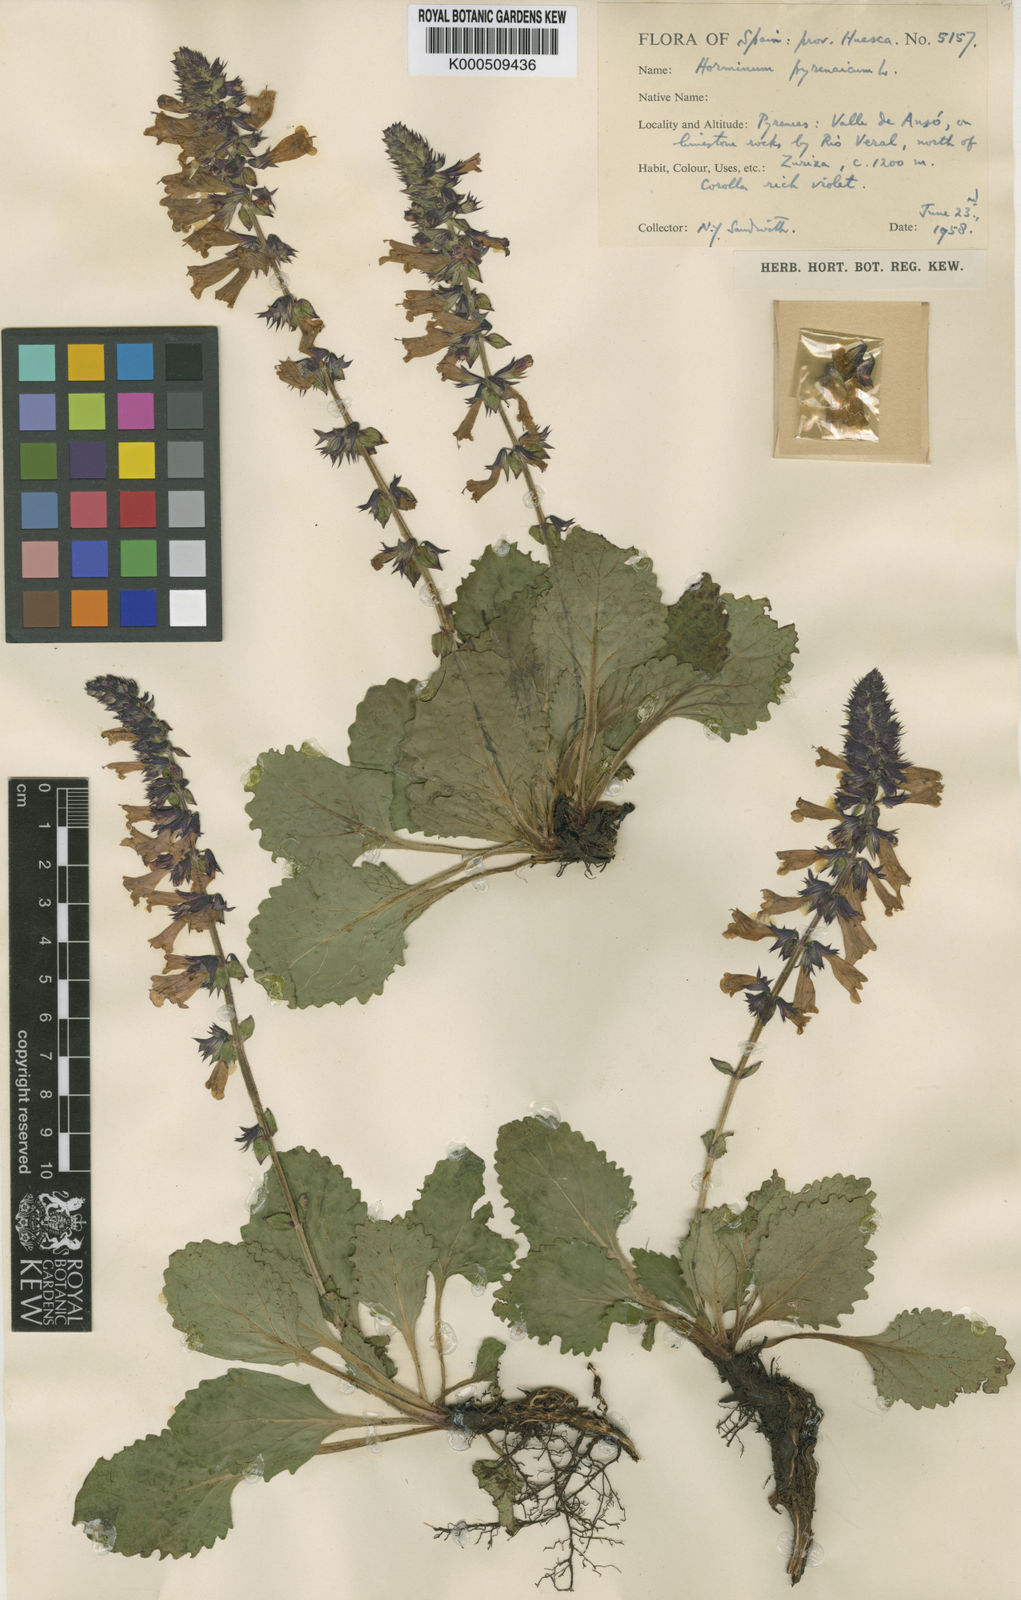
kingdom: Plantae
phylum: Tracheophyta
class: Magnoliopsida
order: Lamiales
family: Lamiaceae
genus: Horminum
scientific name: Horminum pyrenaicum
